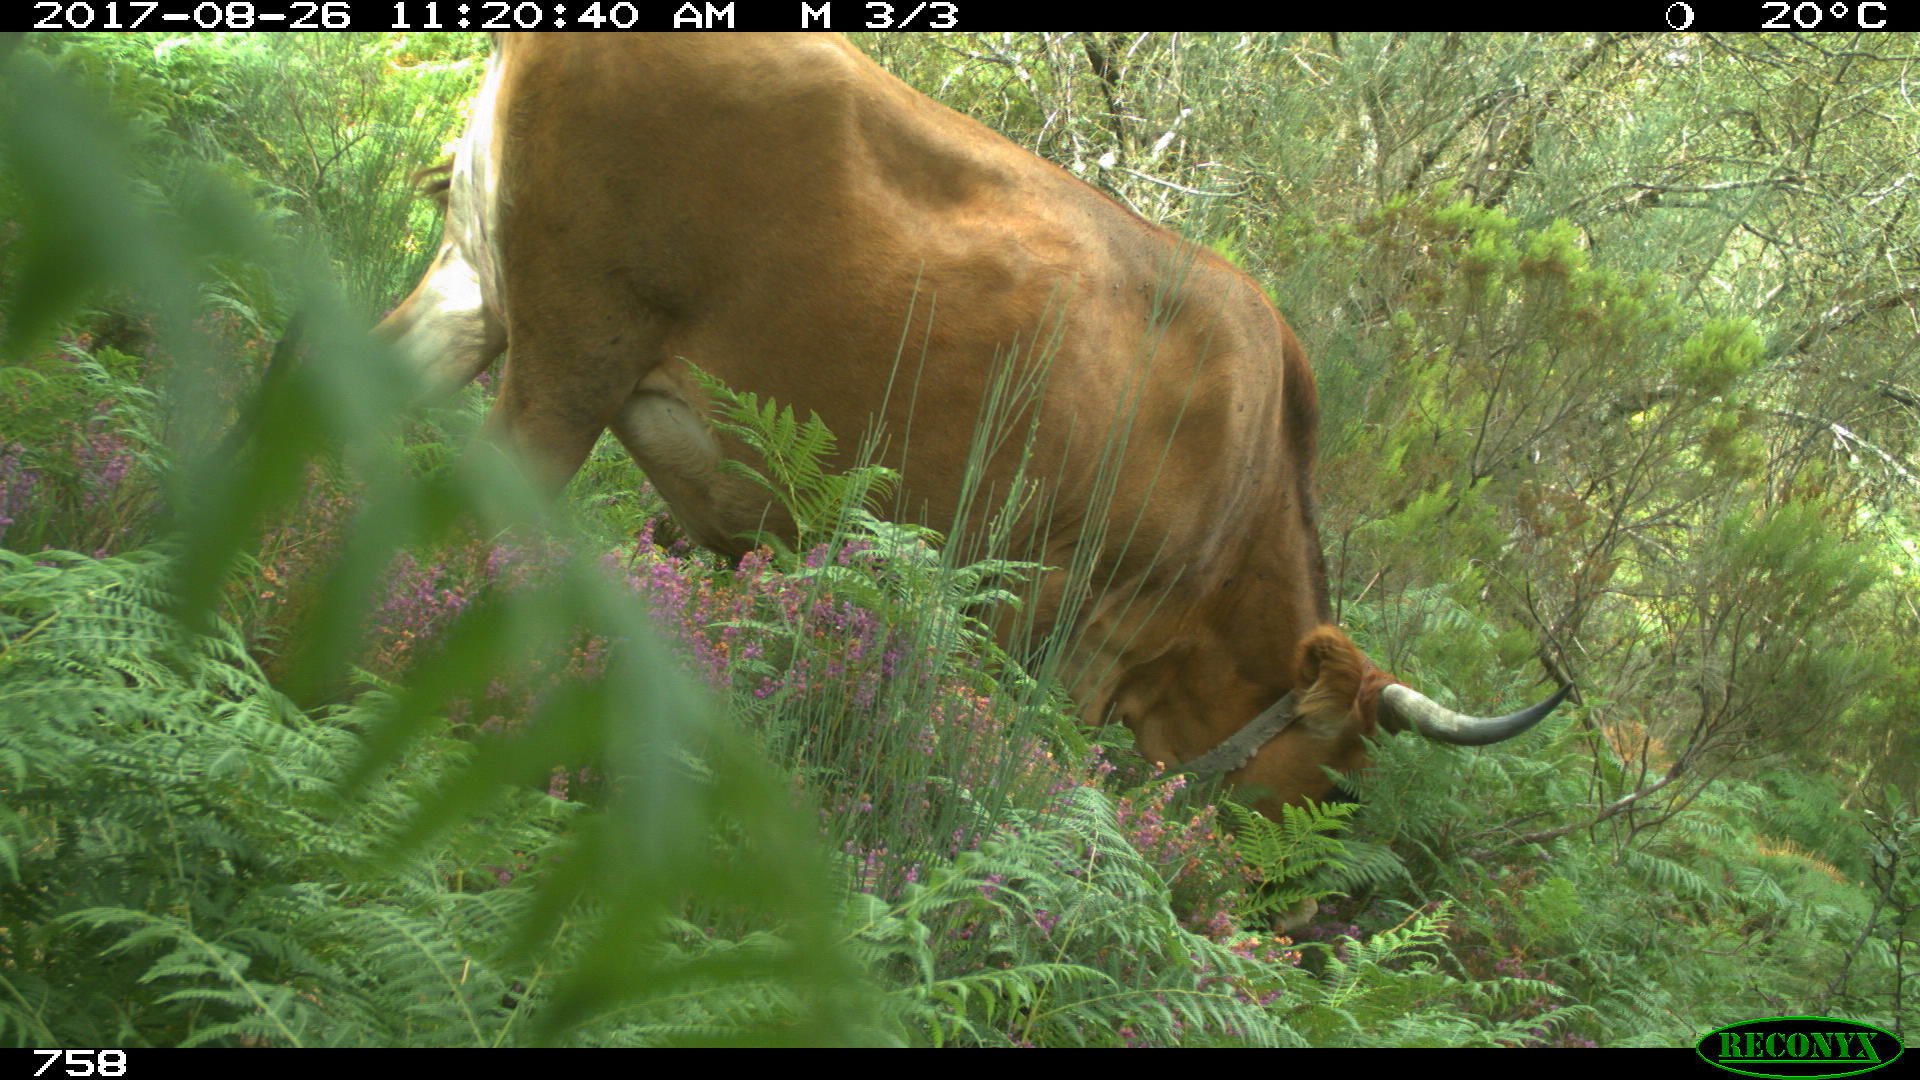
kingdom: Animalia
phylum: Chordata
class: Mammalia
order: Artiodactyla
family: Bovidae
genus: Bos
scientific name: Bos taurus
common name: Domesticated cattle
